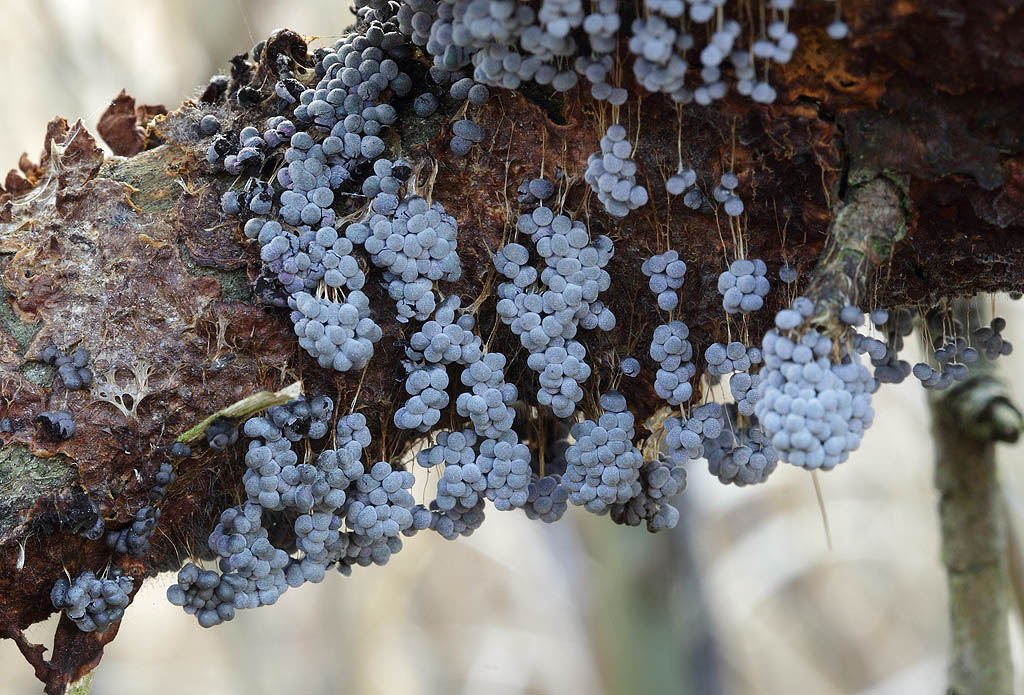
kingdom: Protozoa
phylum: Mycetozoa
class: Myxomycetes
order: Physarales
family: Physaraceae
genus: Badhamia
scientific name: Badhamia utricularis
